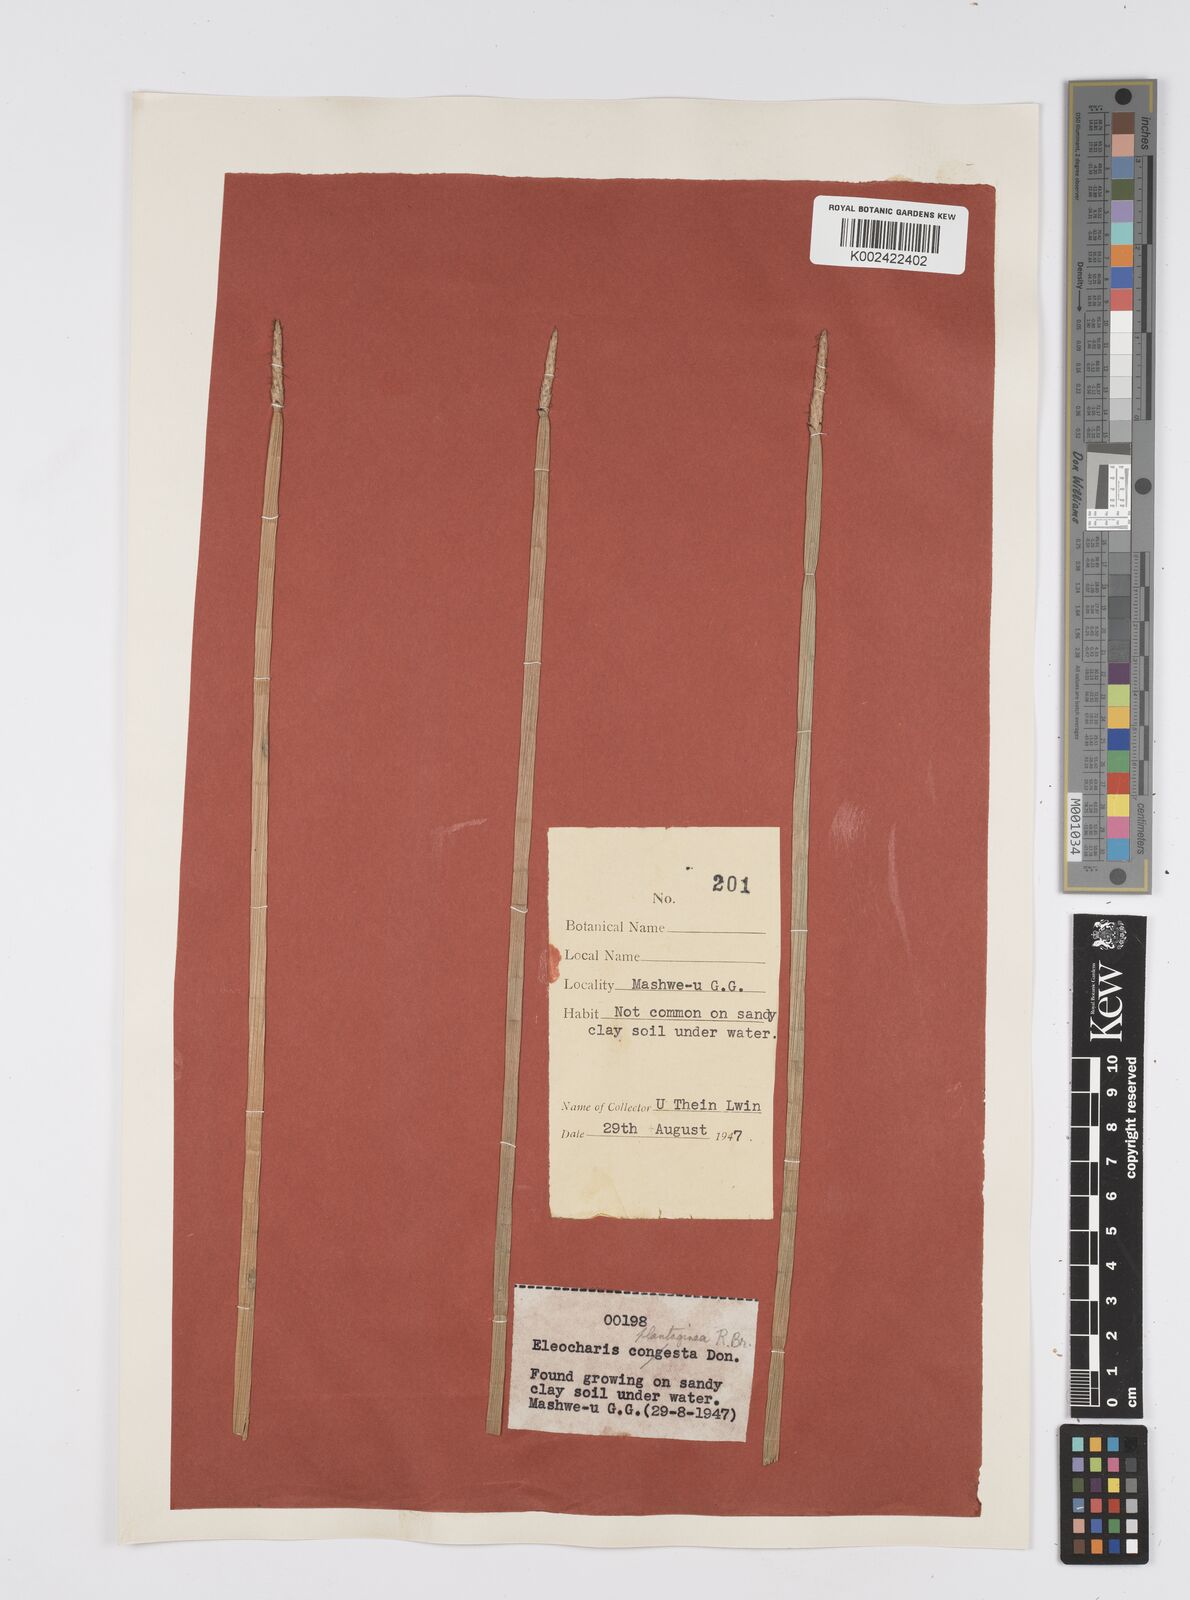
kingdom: Plantae
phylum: Tracheophyta
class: Liliopsida
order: Poales
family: Cyperaceae
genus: Eleocharis
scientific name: Eleocharis dulcis
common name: Chinese water chestnut
